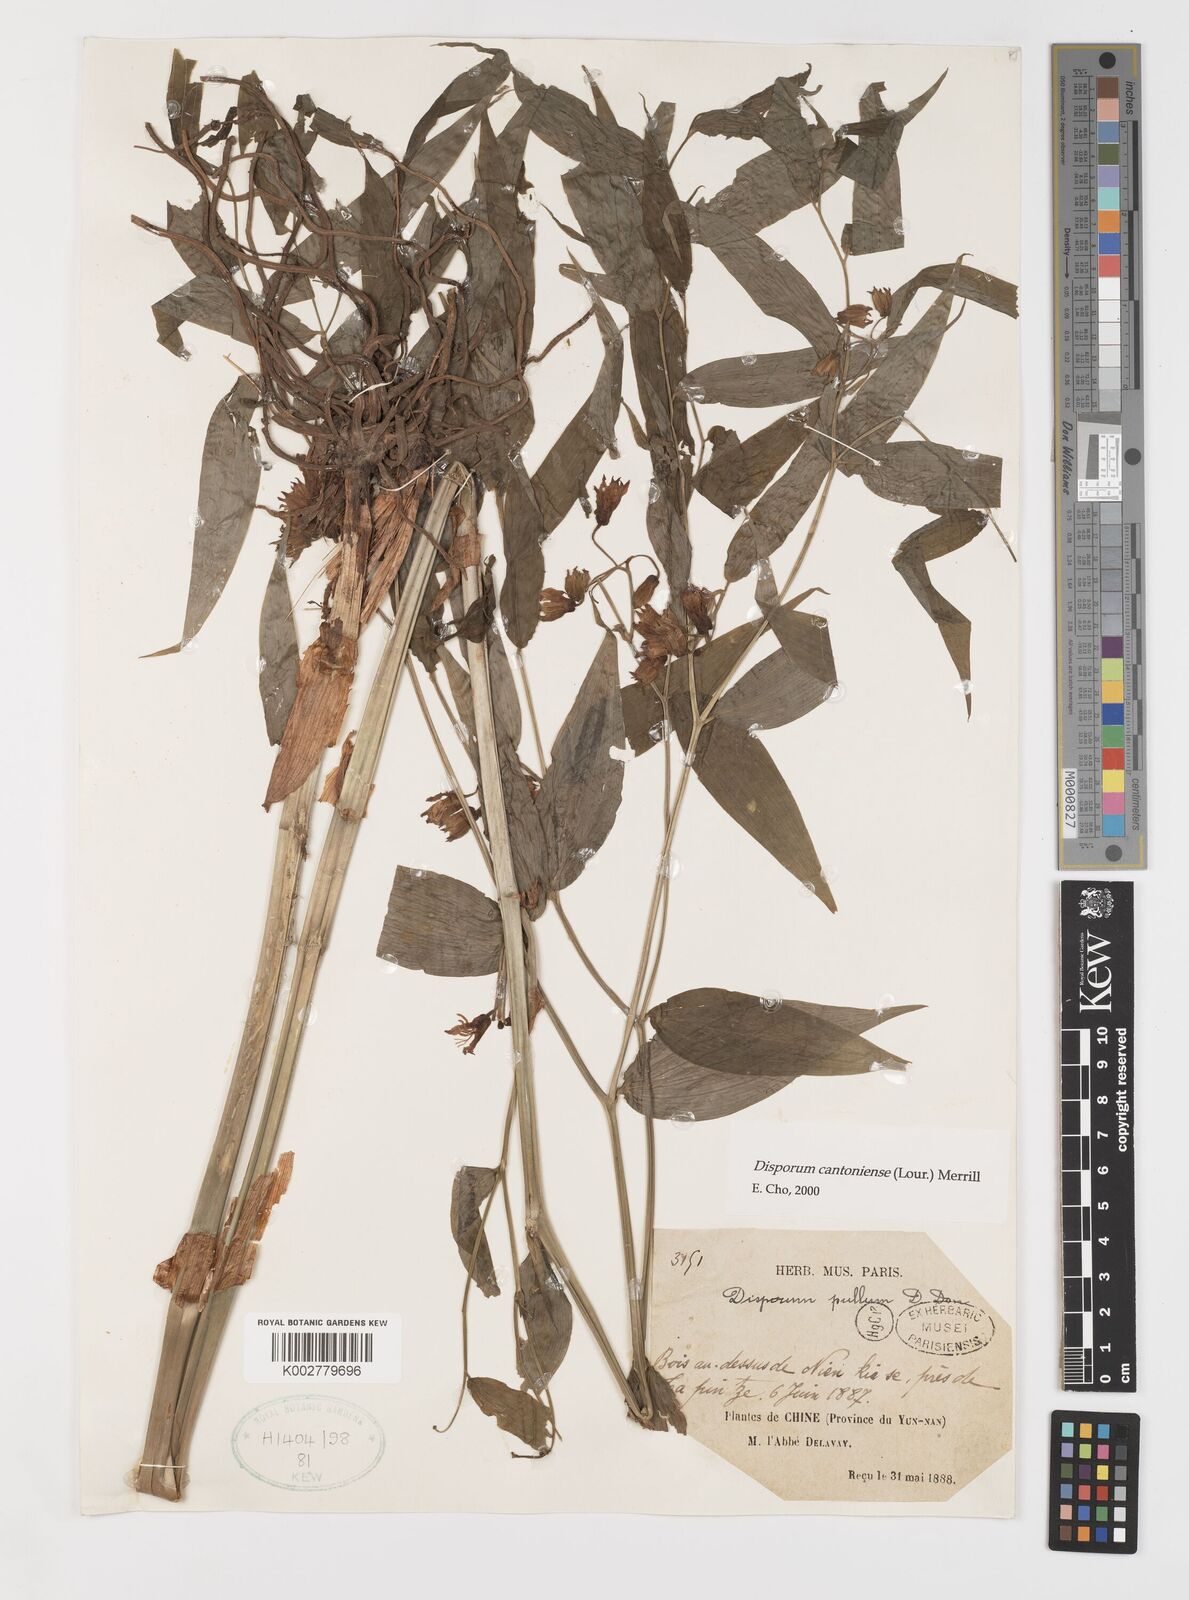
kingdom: Plantae
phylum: Tracheophyta
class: Liliopsida
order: Liliales
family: Colchicaceae
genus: Disporum
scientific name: Disporum cantoniense
